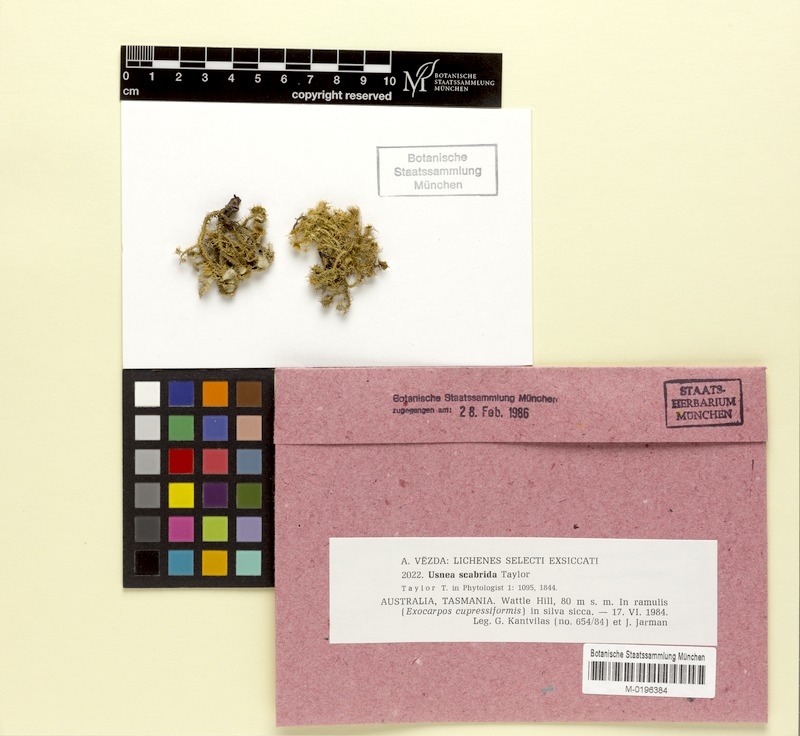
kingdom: Fungi
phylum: Ascomycota
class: Lecanoromycetes
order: Lecanorales
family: Parmeliaceae
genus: Usnea
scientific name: Usnea scabrida
